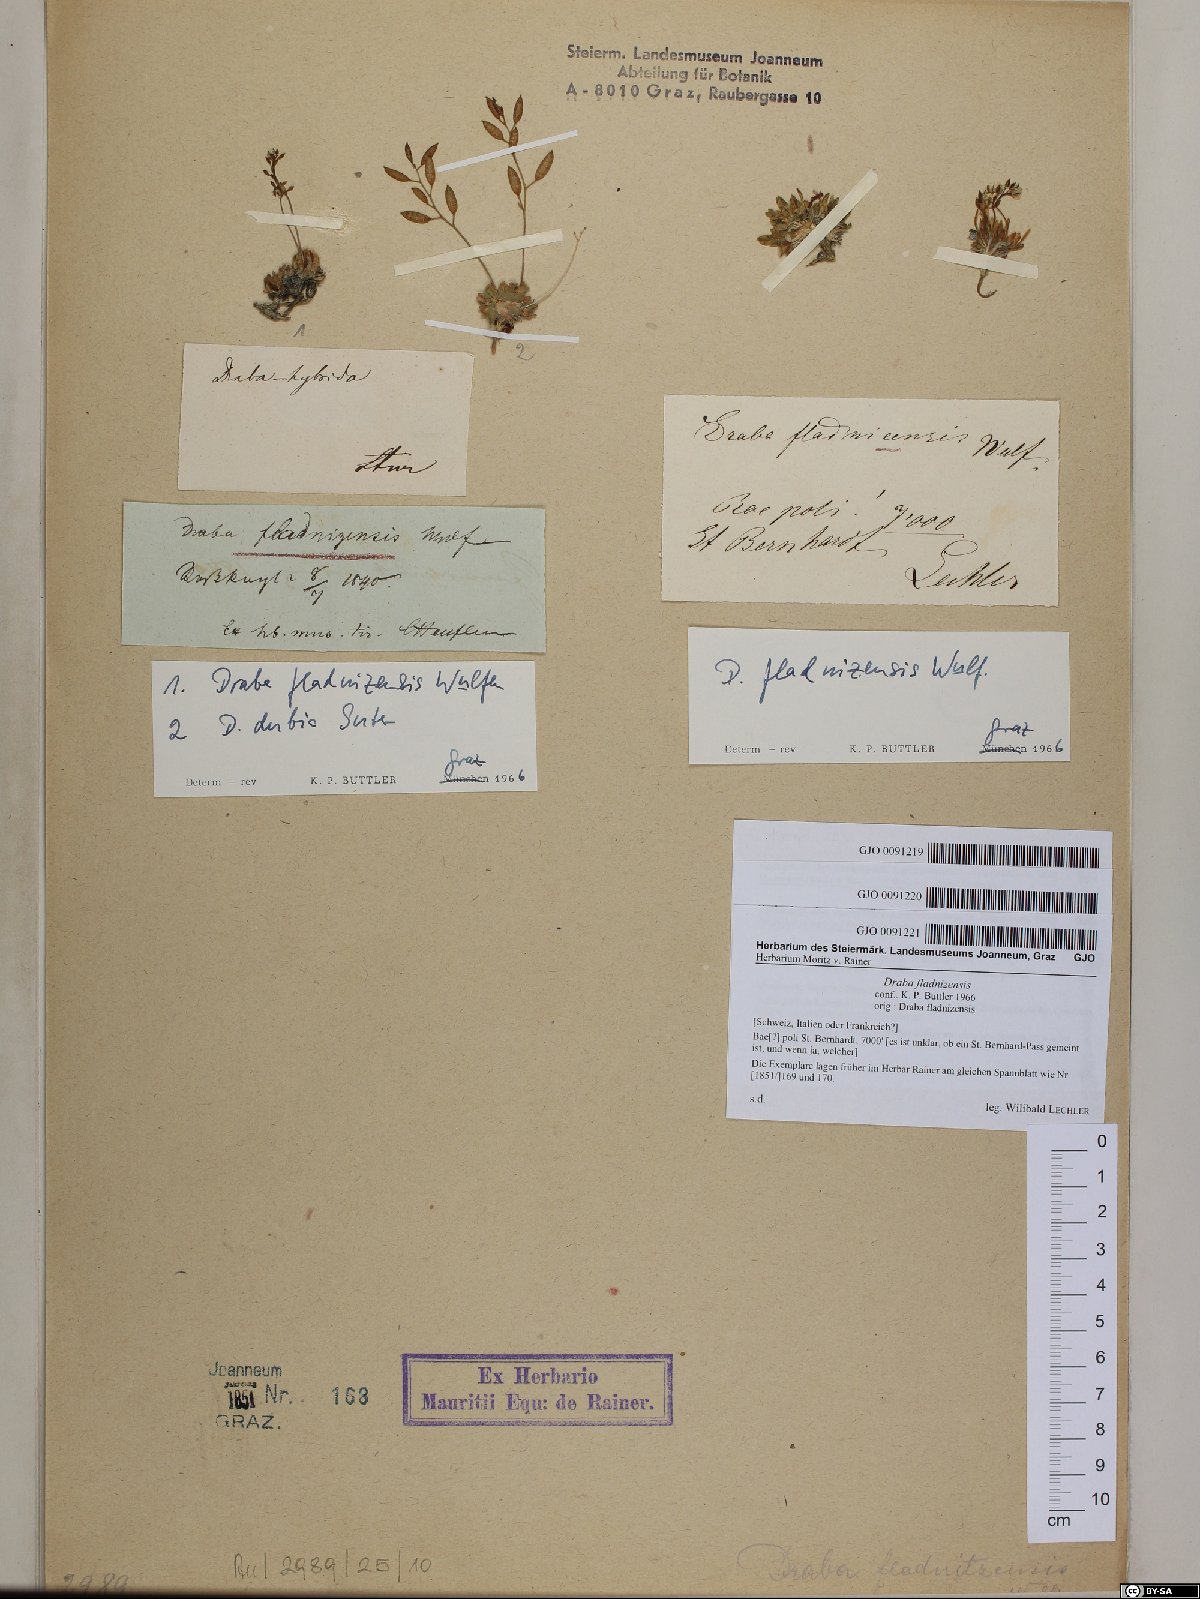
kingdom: Plantae
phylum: Tracheophyta
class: Magnoliopsida
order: Brassicales
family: Brassicaceae
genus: Draba
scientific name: Draba fladnizensis
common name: Austrian draba
